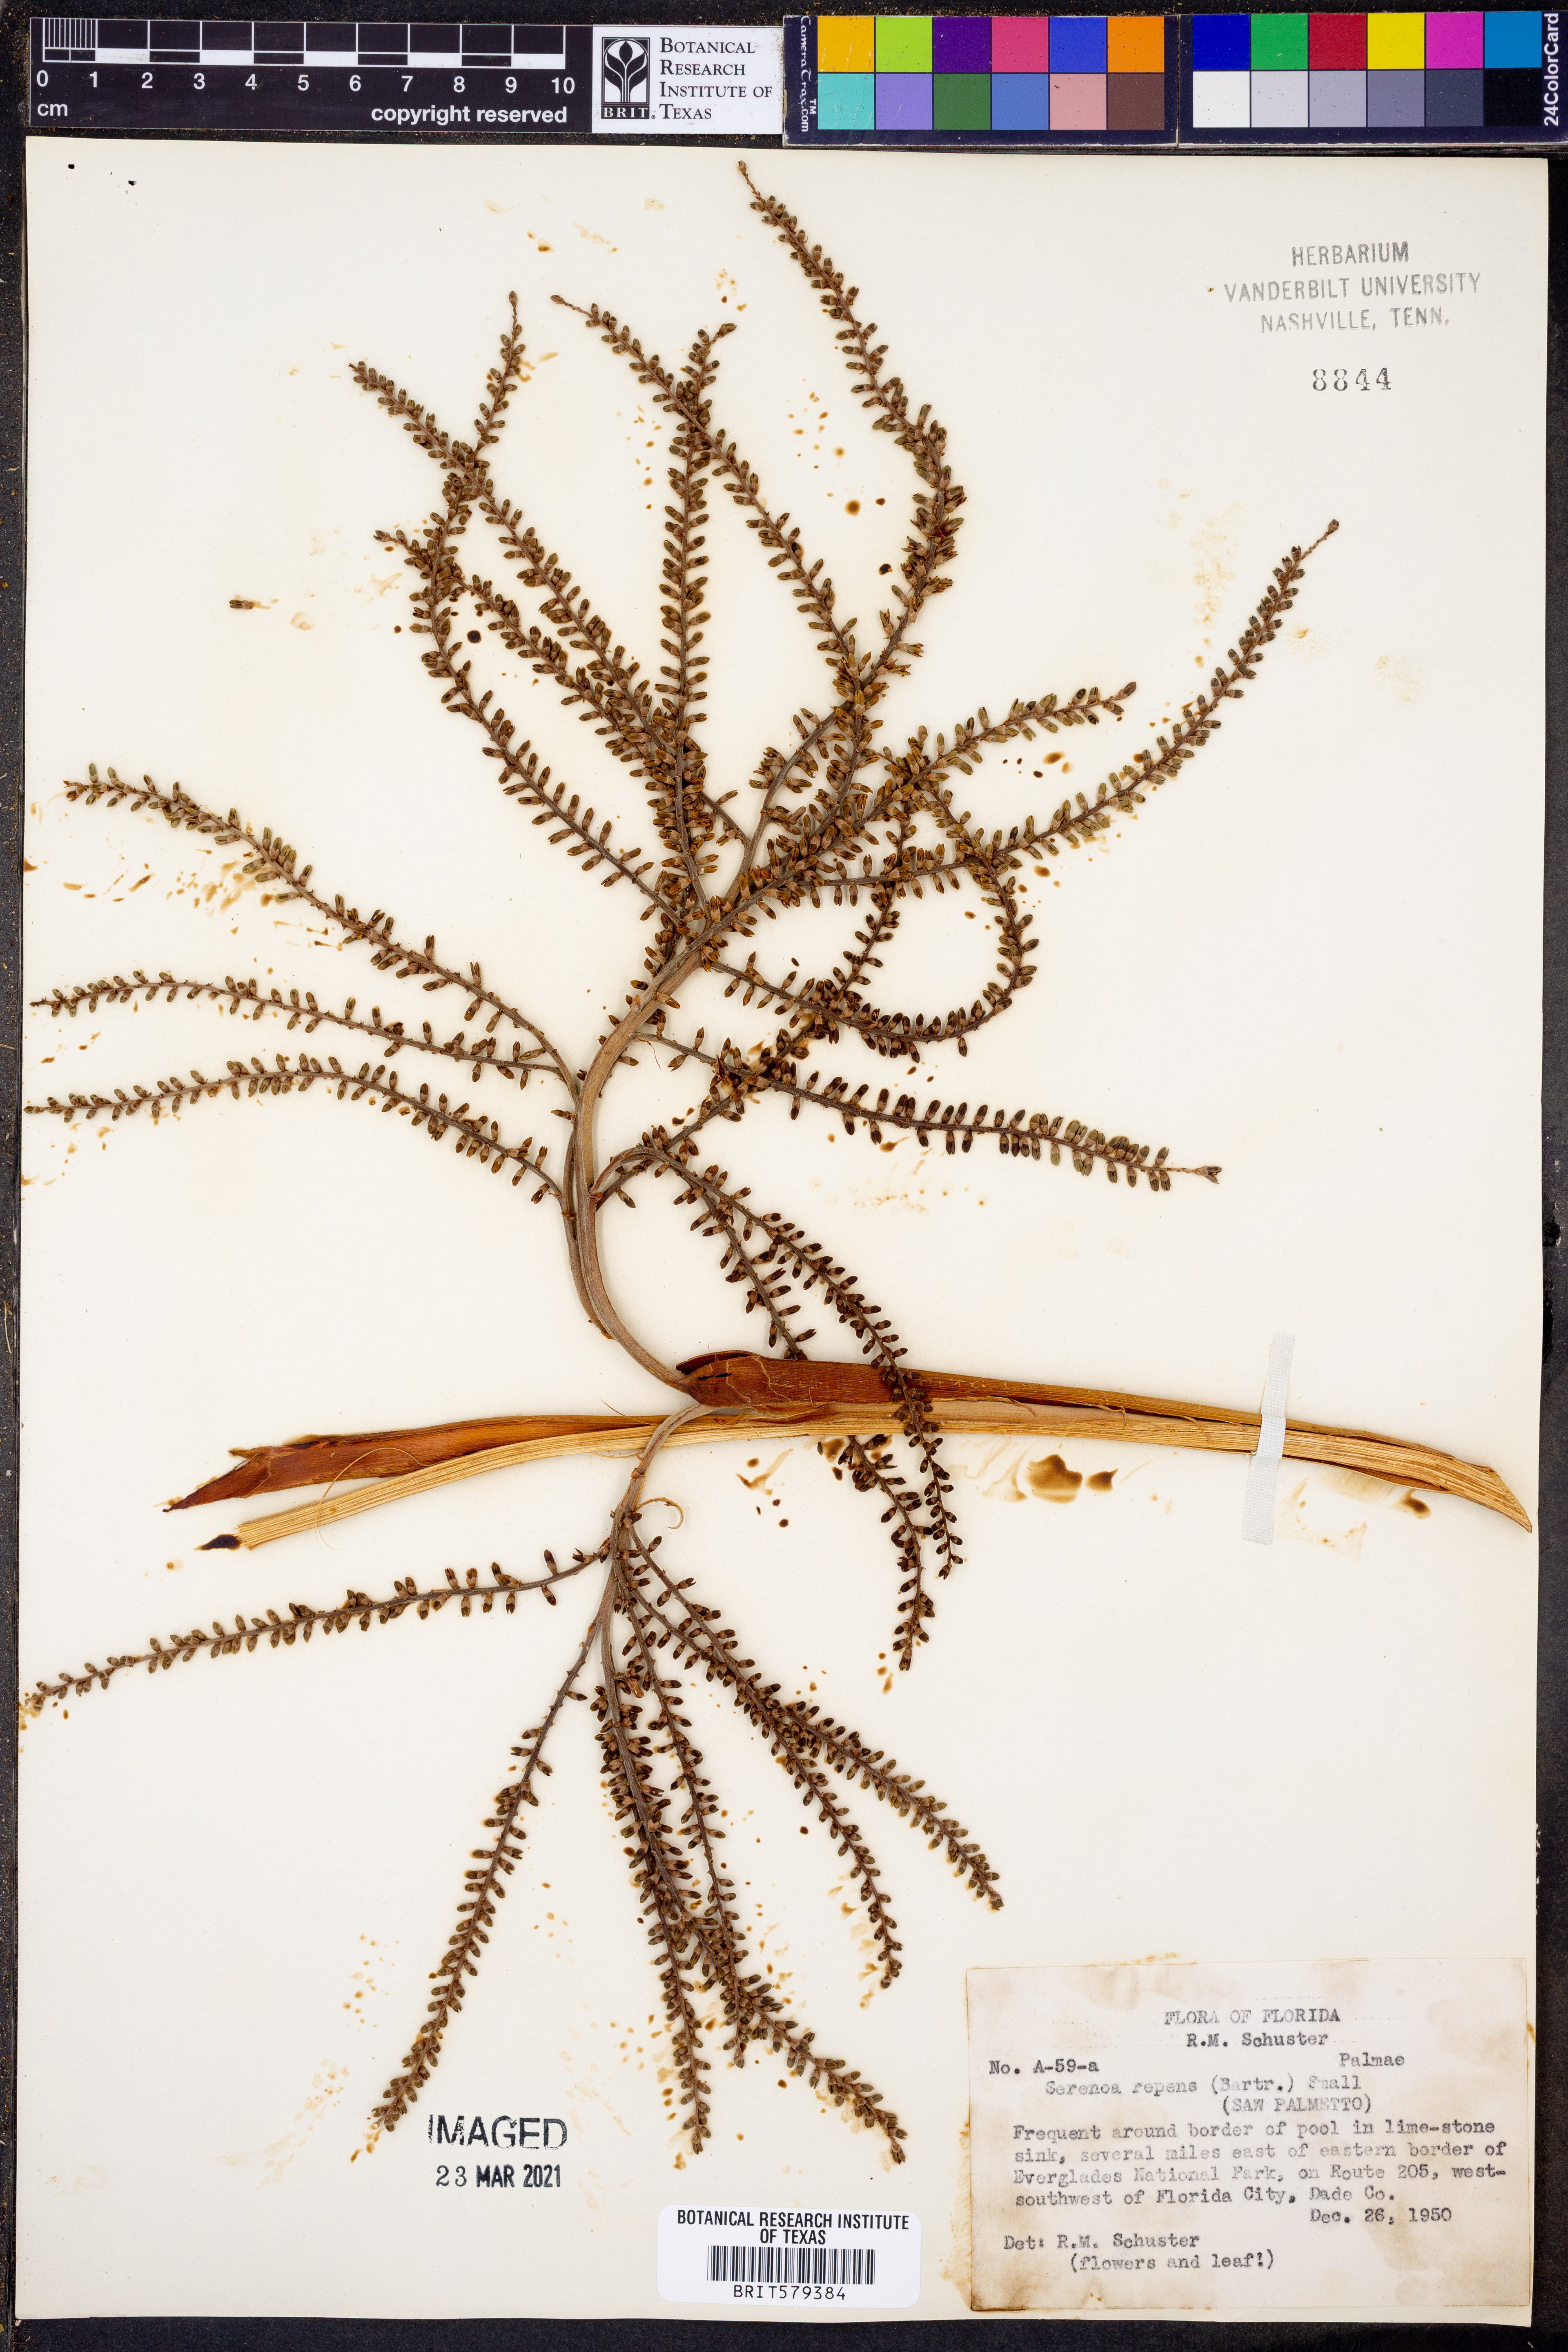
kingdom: Plantae
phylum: Tracheophyta
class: Liliopsida
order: Arecales
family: Arecaceae
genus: Serenoa
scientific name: Serenoa repens
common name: Saw-palmetto
